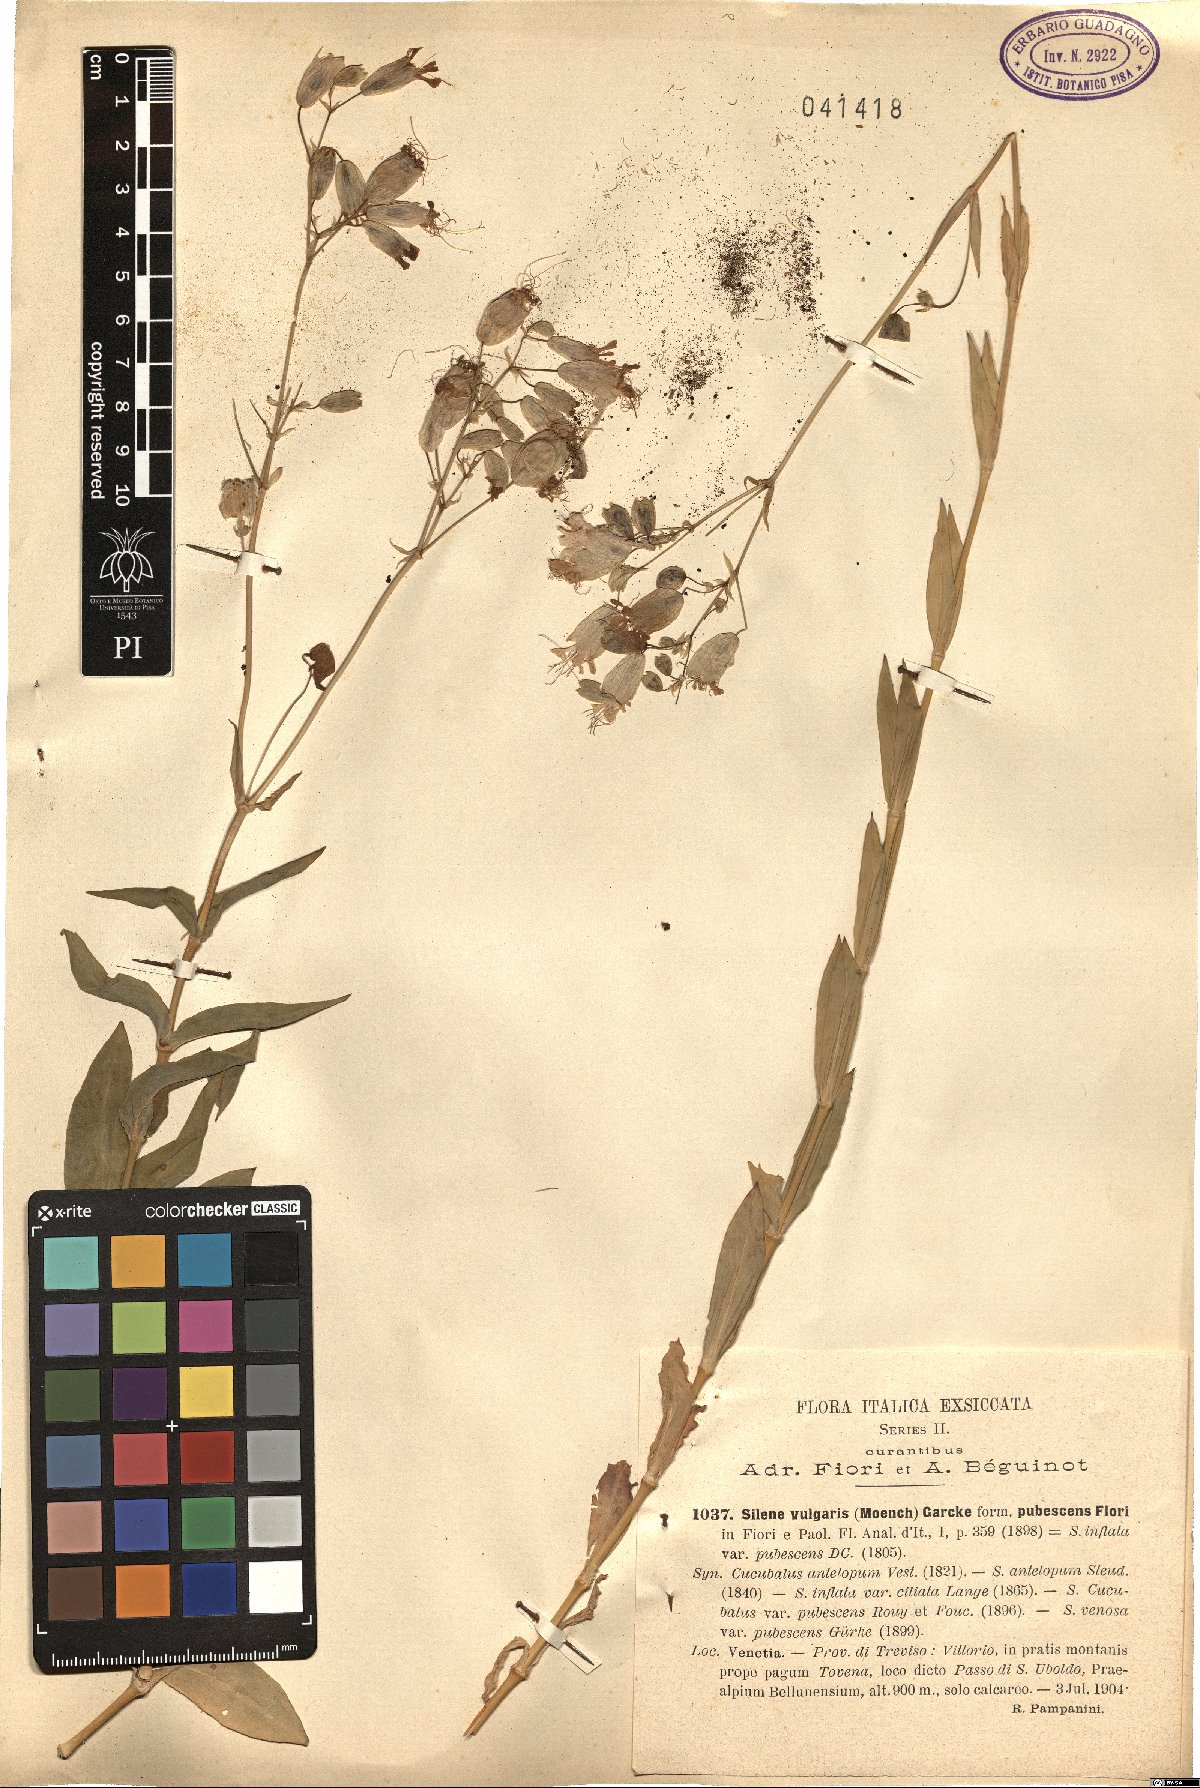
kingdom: Plantae
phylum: Tracheophyta
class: Magnoliopsida
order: Caryophyllales
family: Caryophyllaceae
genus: Silene
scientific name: Silene vulgaris
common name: Bladder campion
